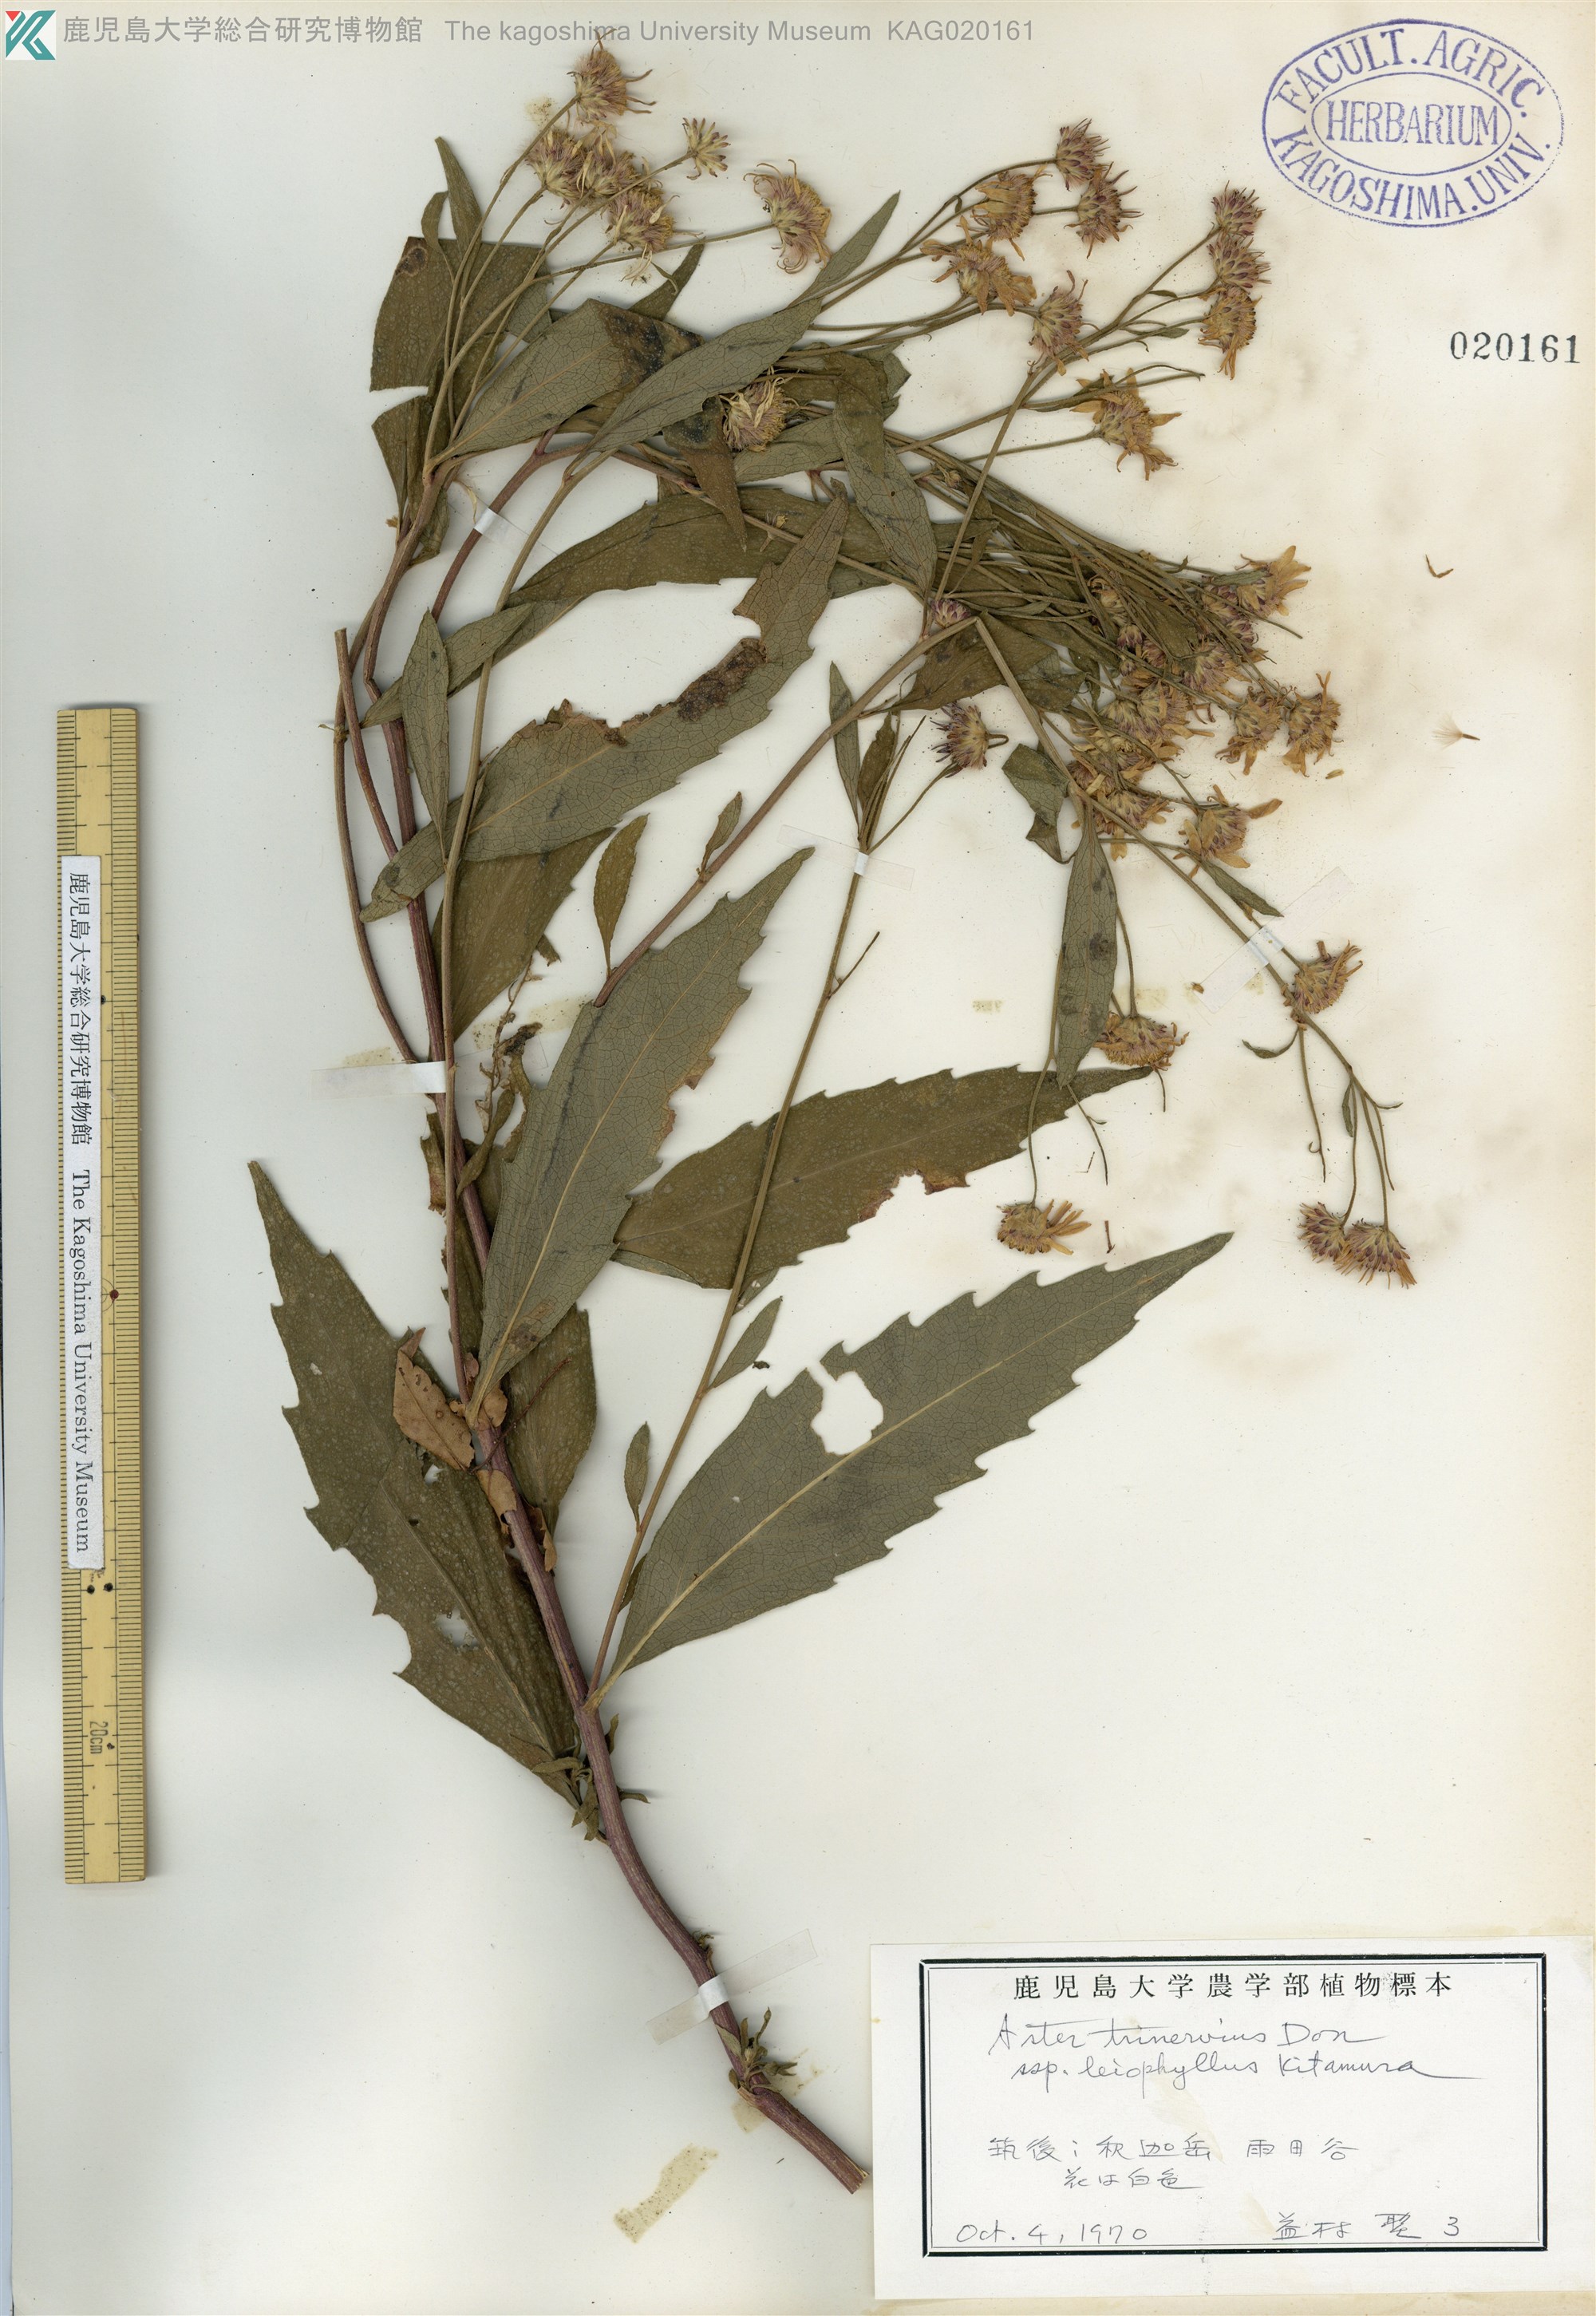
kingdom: Plantae
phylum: Tracheophyta
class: Magnoliopsida
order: Asterales
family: Asteraceae
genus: Aster
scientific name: Aster ageratoides
